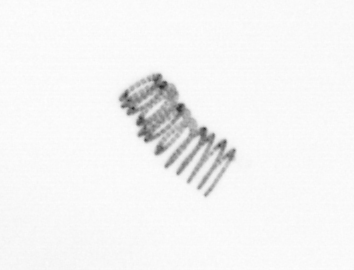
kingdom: Chromista
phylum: Ochrophyta
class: Bacillariophyceae
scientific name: Bacillariophyceae
